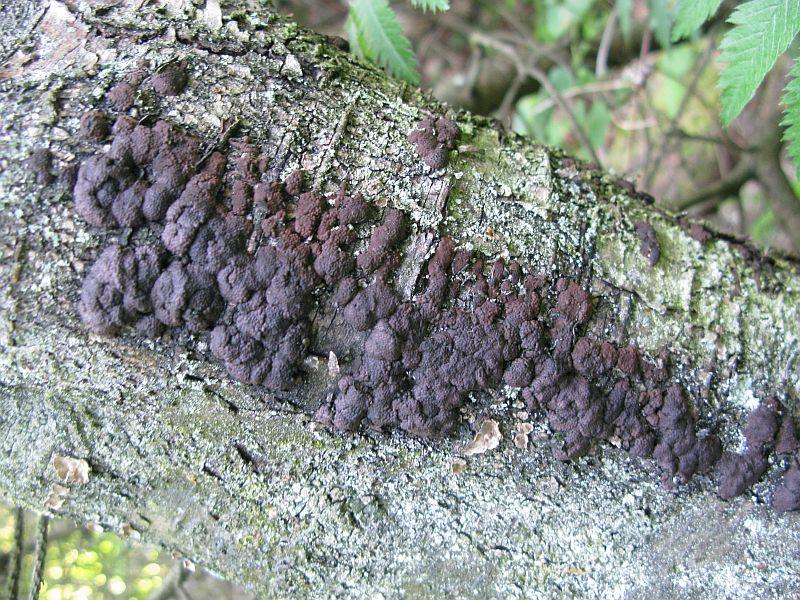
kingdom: Fungi
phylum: Ascomycota
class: Sordariomycetes
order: Xylariales
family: Hypoxylaceae
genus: Jackrogersella
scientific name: Jackrogersella multiformis
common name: foranderlig kulbær
